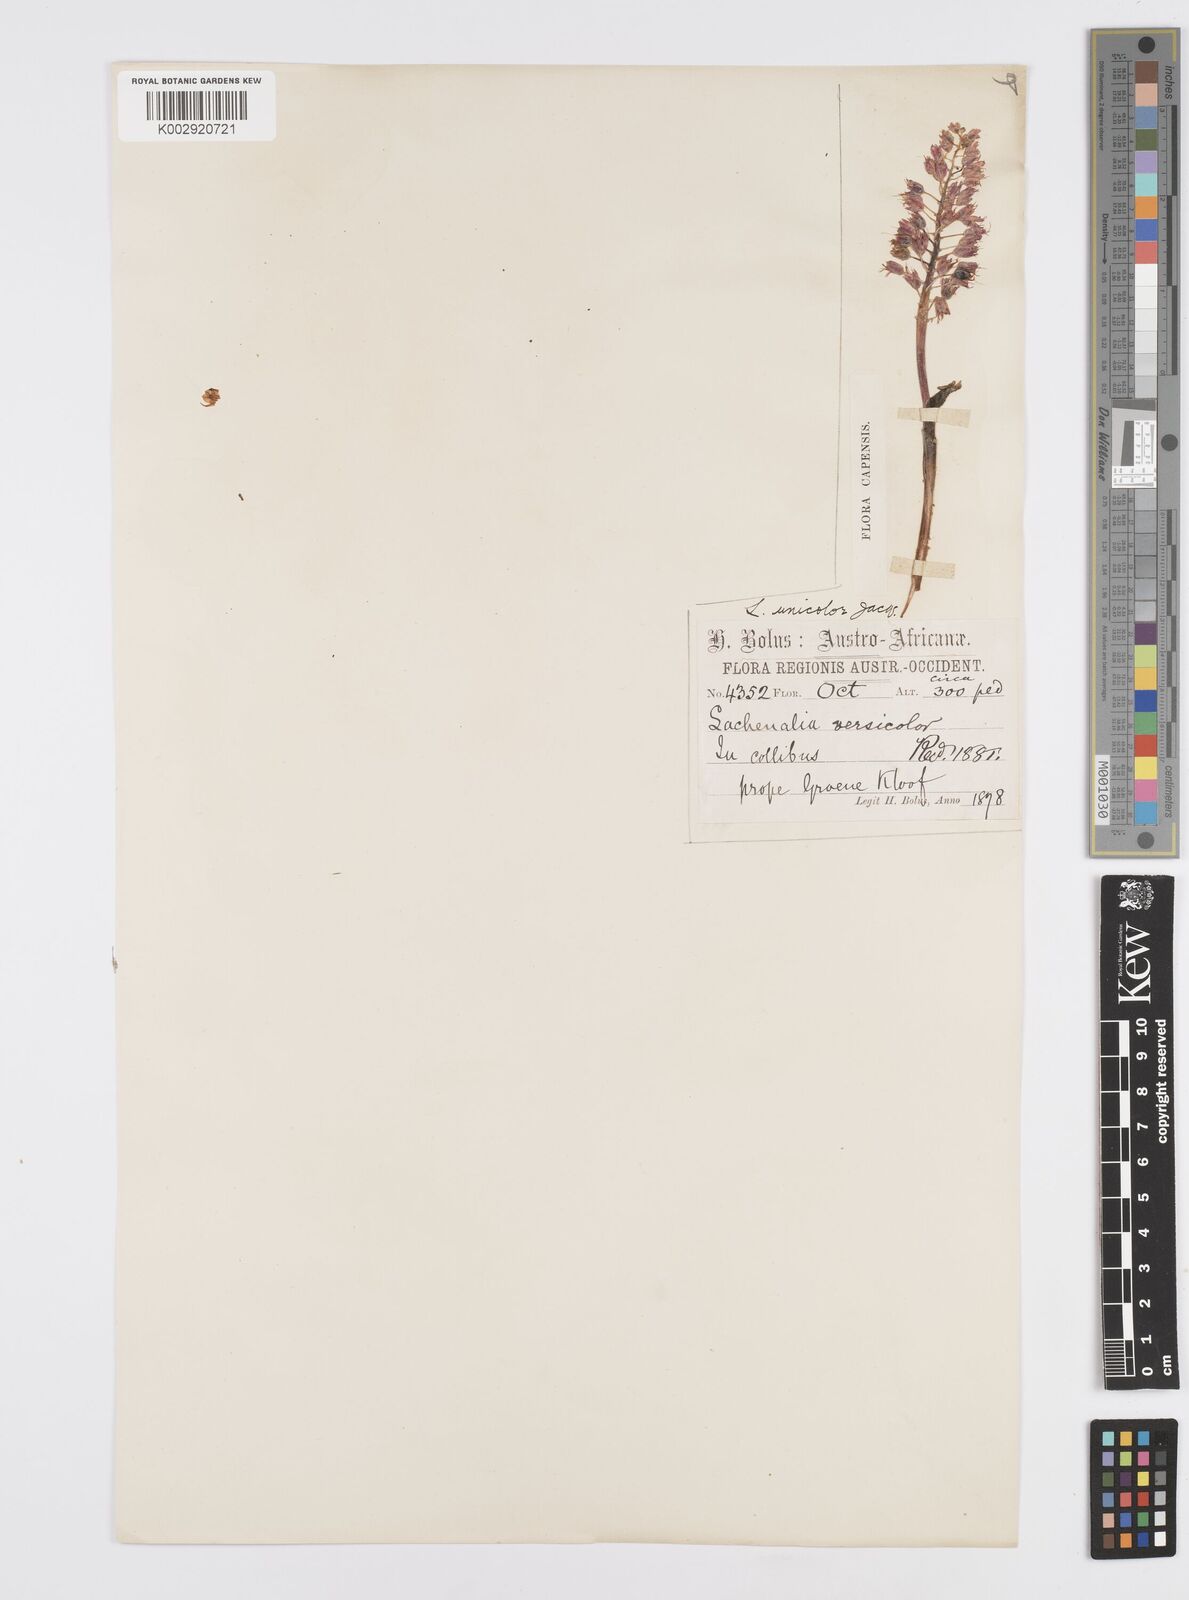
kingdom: Plantae
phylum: Tracheophyta
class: Liliopsida
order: Asparagales
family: Asparagaceae
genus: Lachenalia
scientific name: Lachenalia pallida
